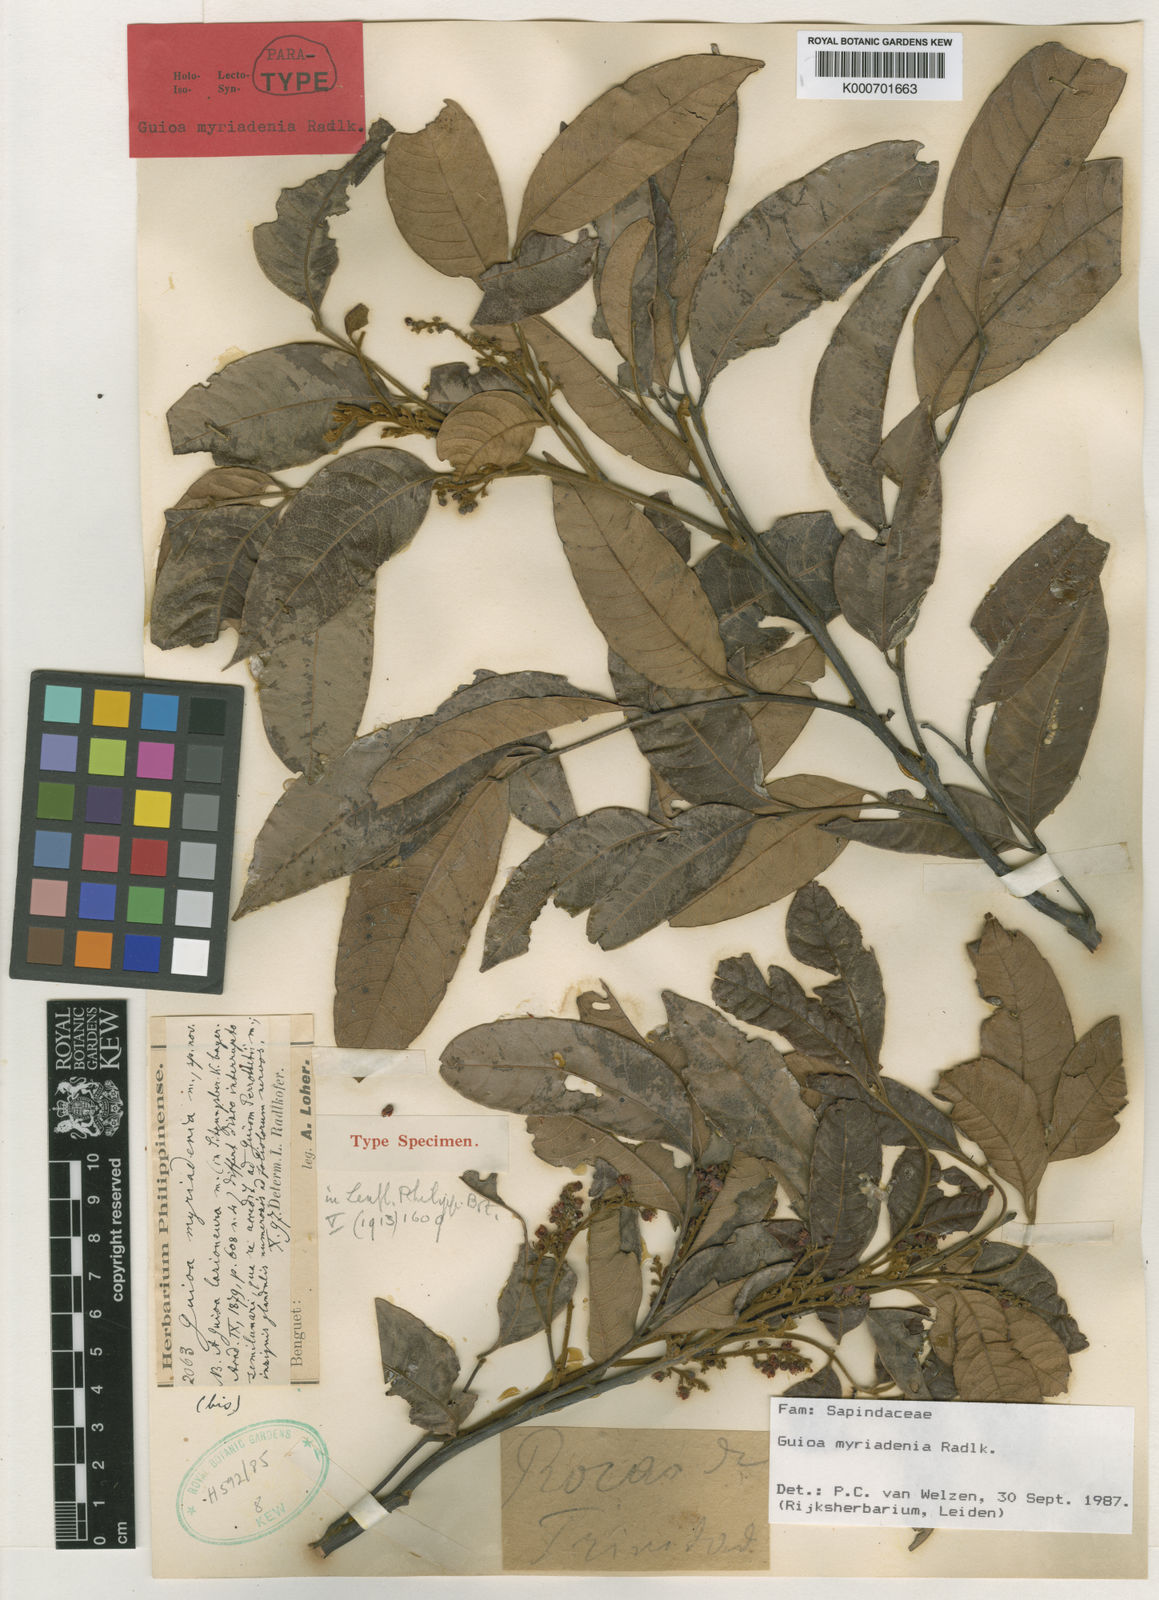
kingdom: Plantae
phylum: Tracheophyta
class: Magnoliopsida
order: Sapindales
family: Sapindaceae
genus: Guioa
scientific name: Guioa myriadenia
